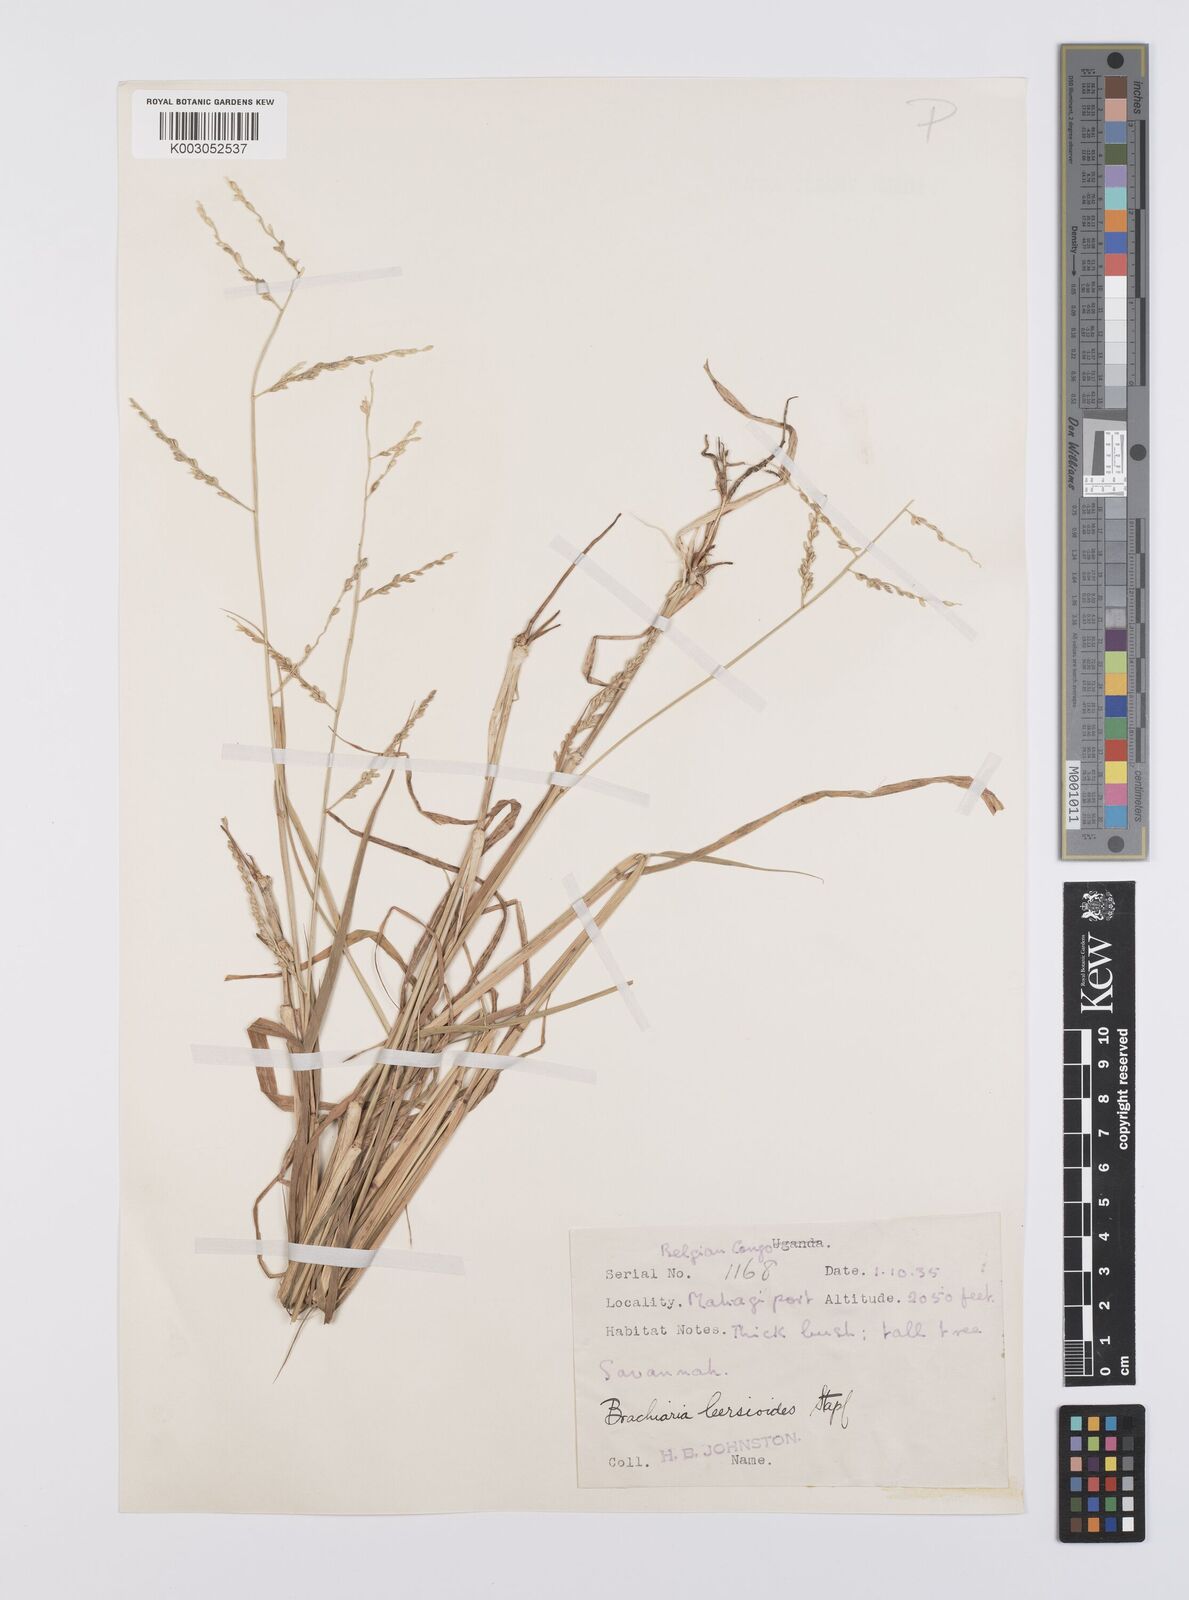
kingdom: Plantae
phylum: Tracheophyta
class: Liliopsida
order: Poales
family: Poaceae
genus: Urochloa
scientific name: Urochloa leersioides
